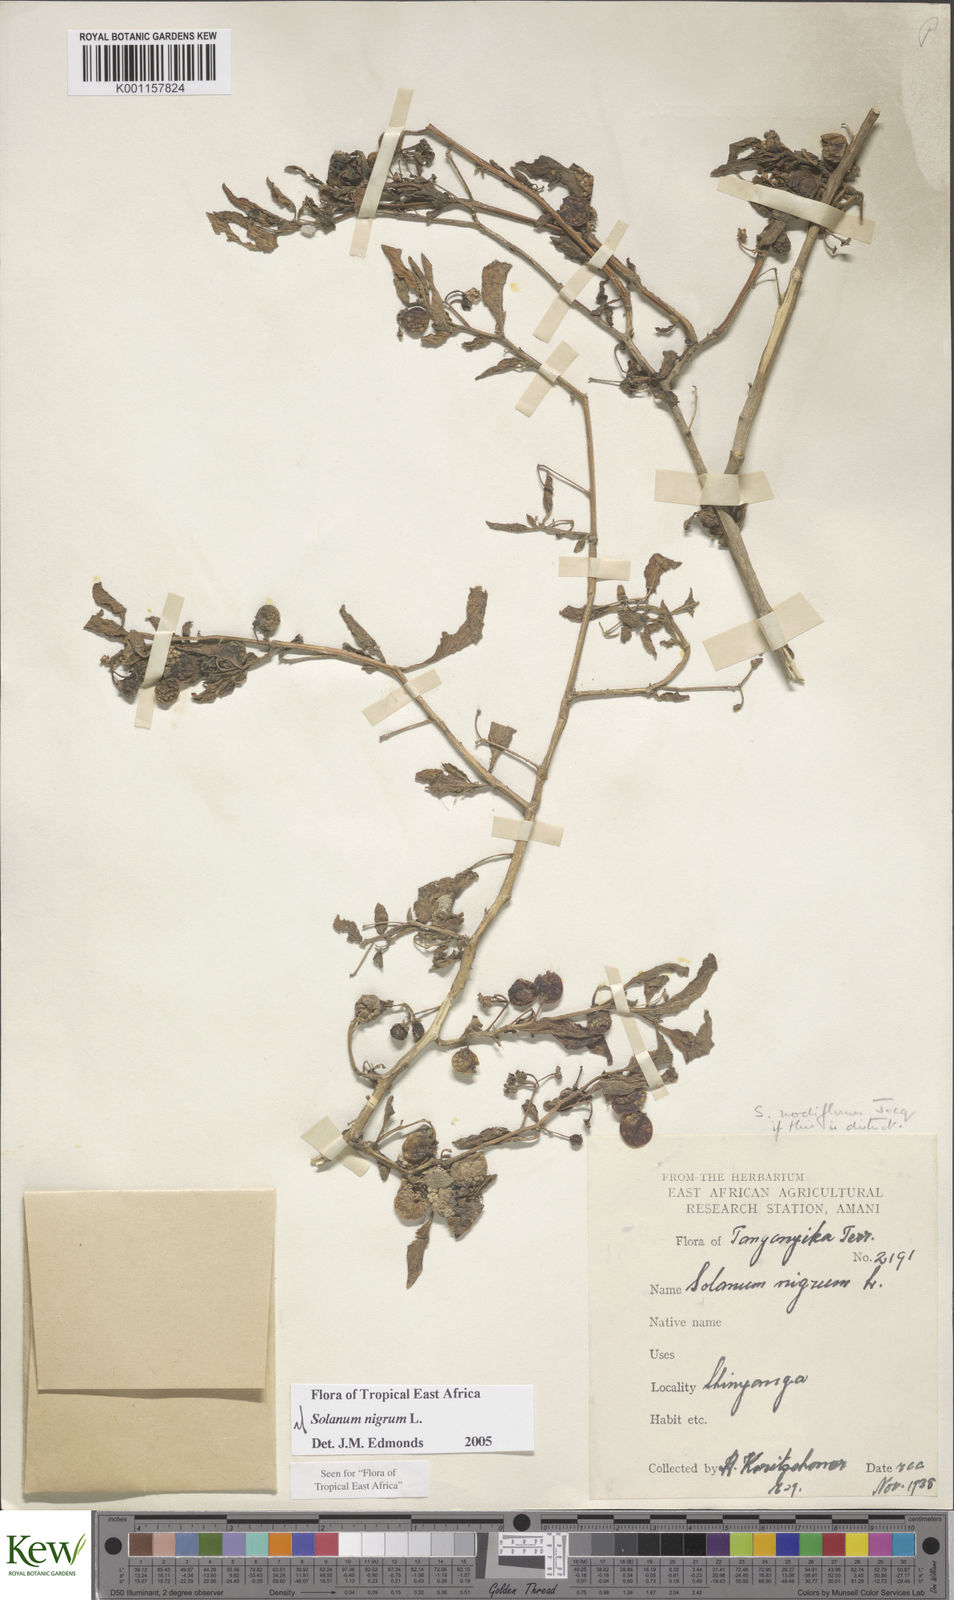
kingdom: Plantae
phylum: Tracheophyta
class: Magnoliopsida
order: Solanales
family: Solanaceae
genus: Solanum
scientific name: Solanum nigrum
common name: Black nightshade
